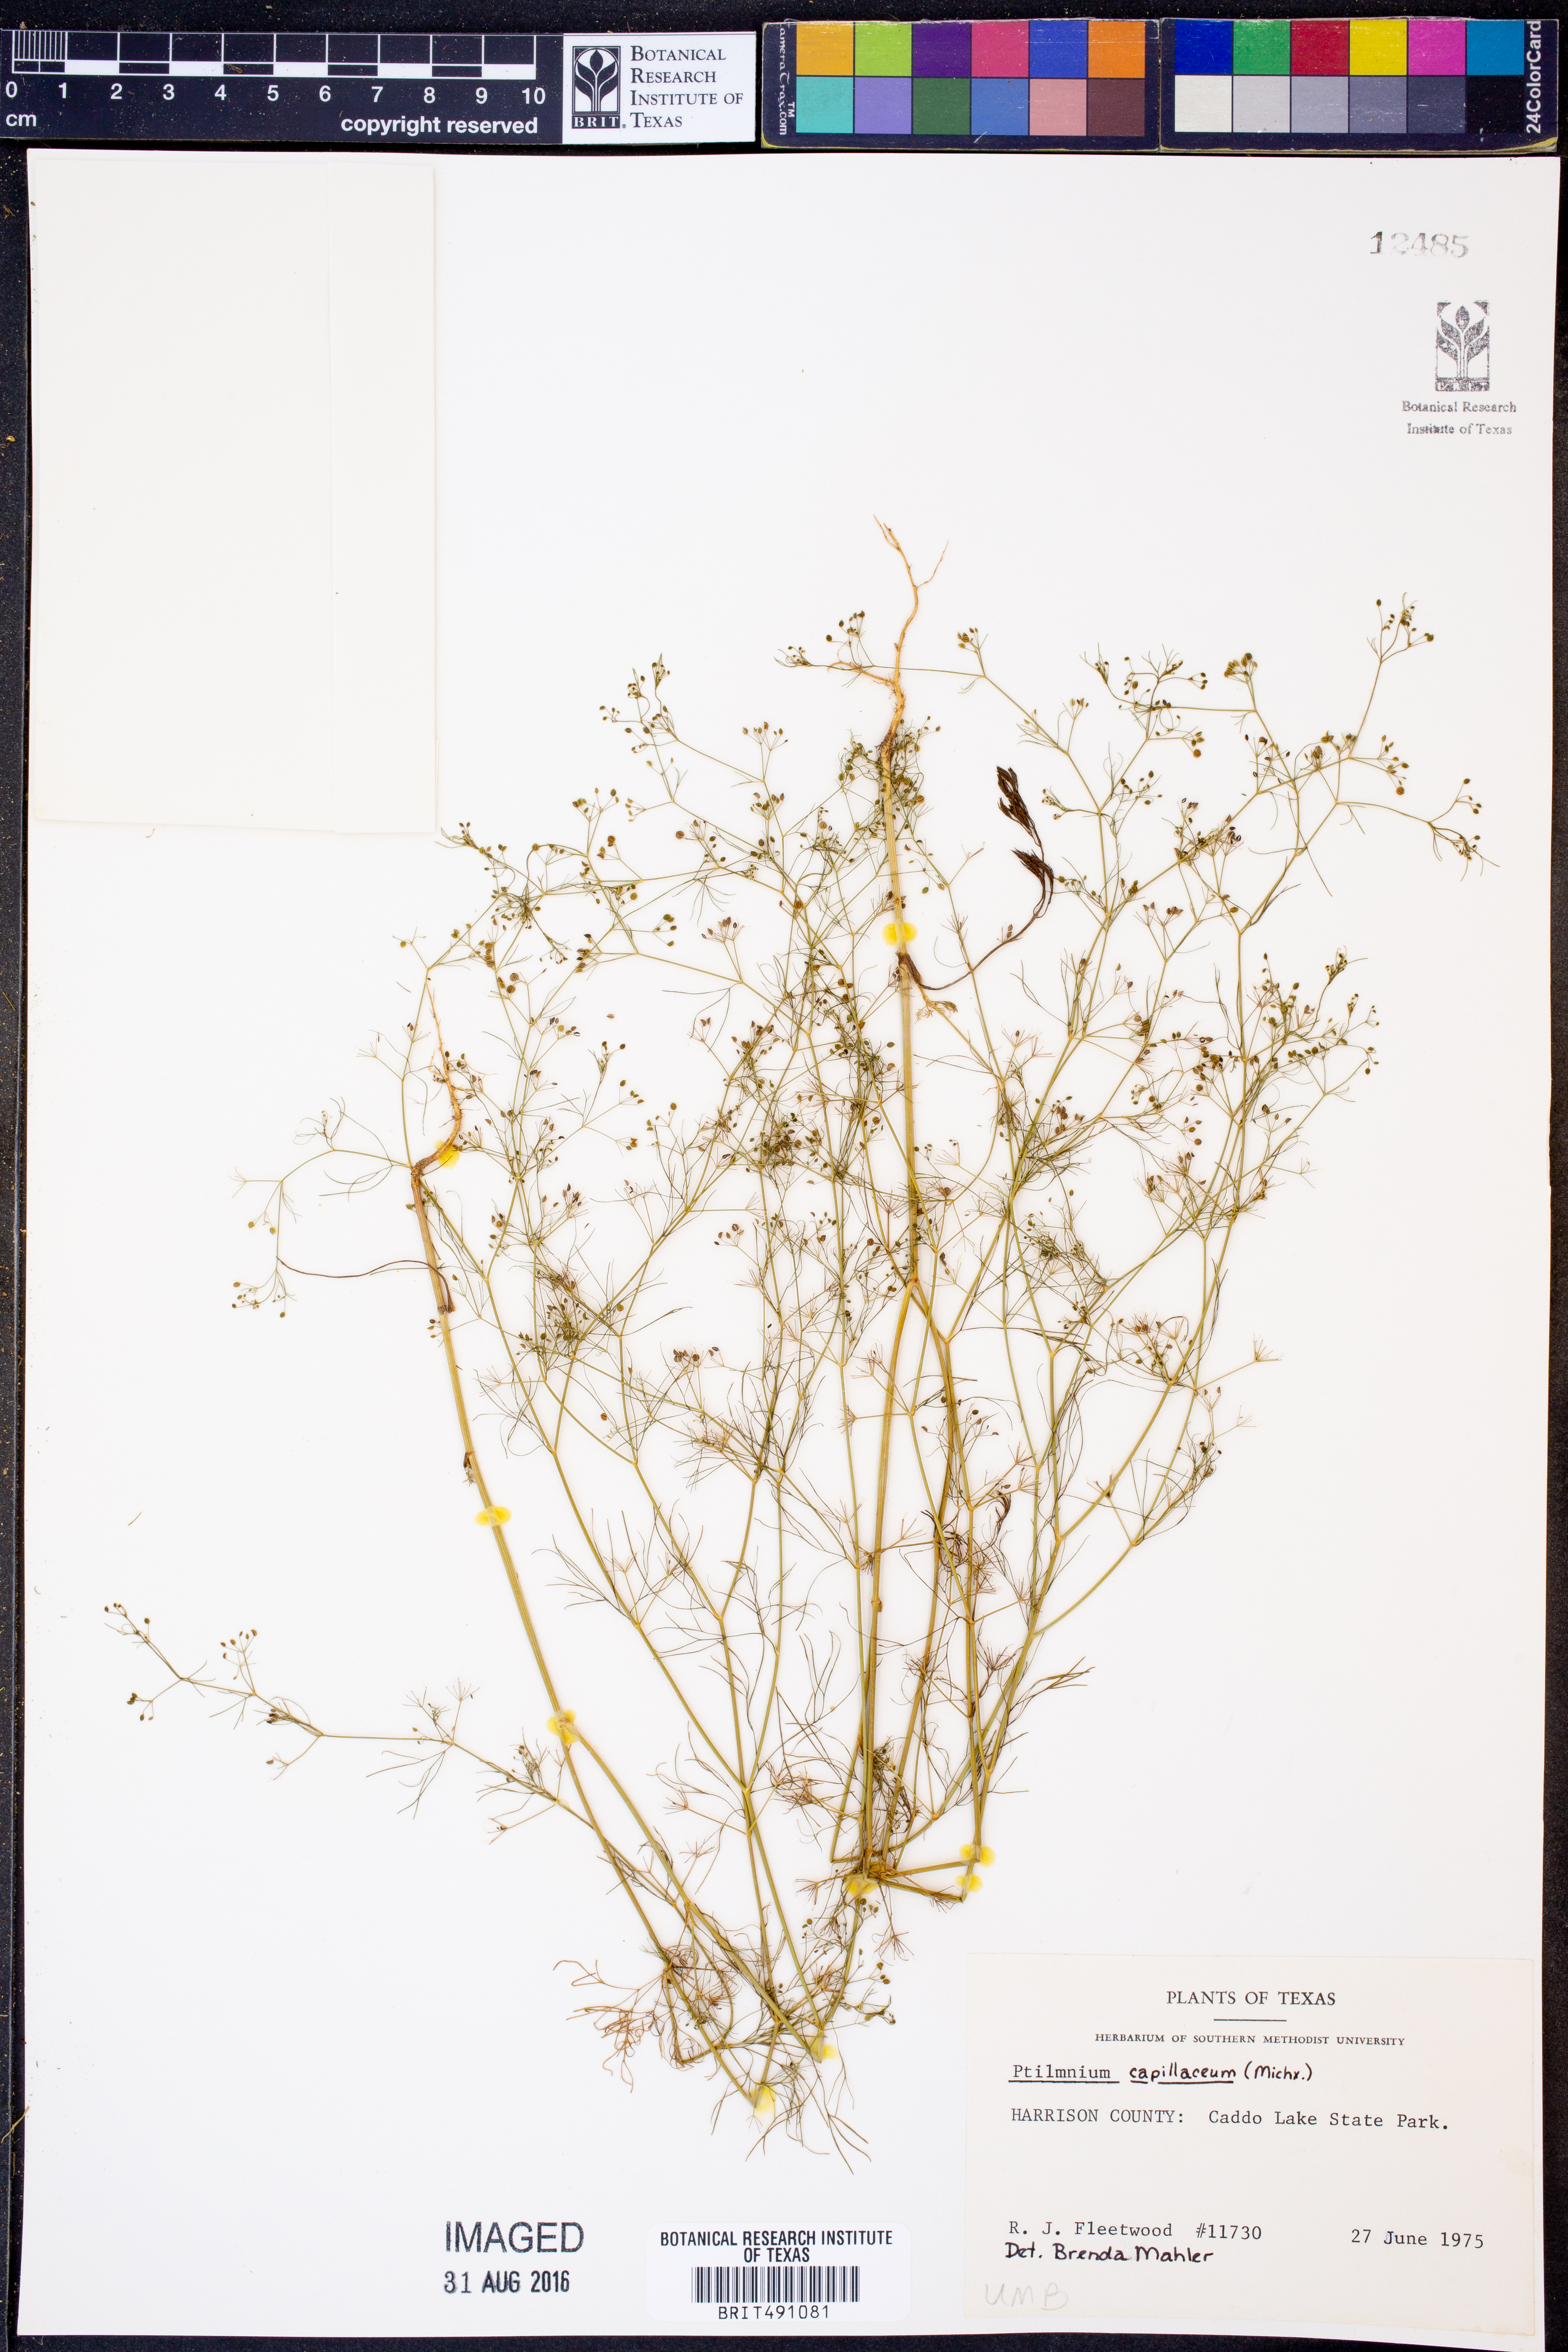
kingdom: Plantae
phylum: Tracheophyta
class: Magnoliopsida
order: Apiales
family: Apiaceae
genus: Ptilimnium
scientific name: Ptilimnium capillaceum
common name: Herbwilliam
